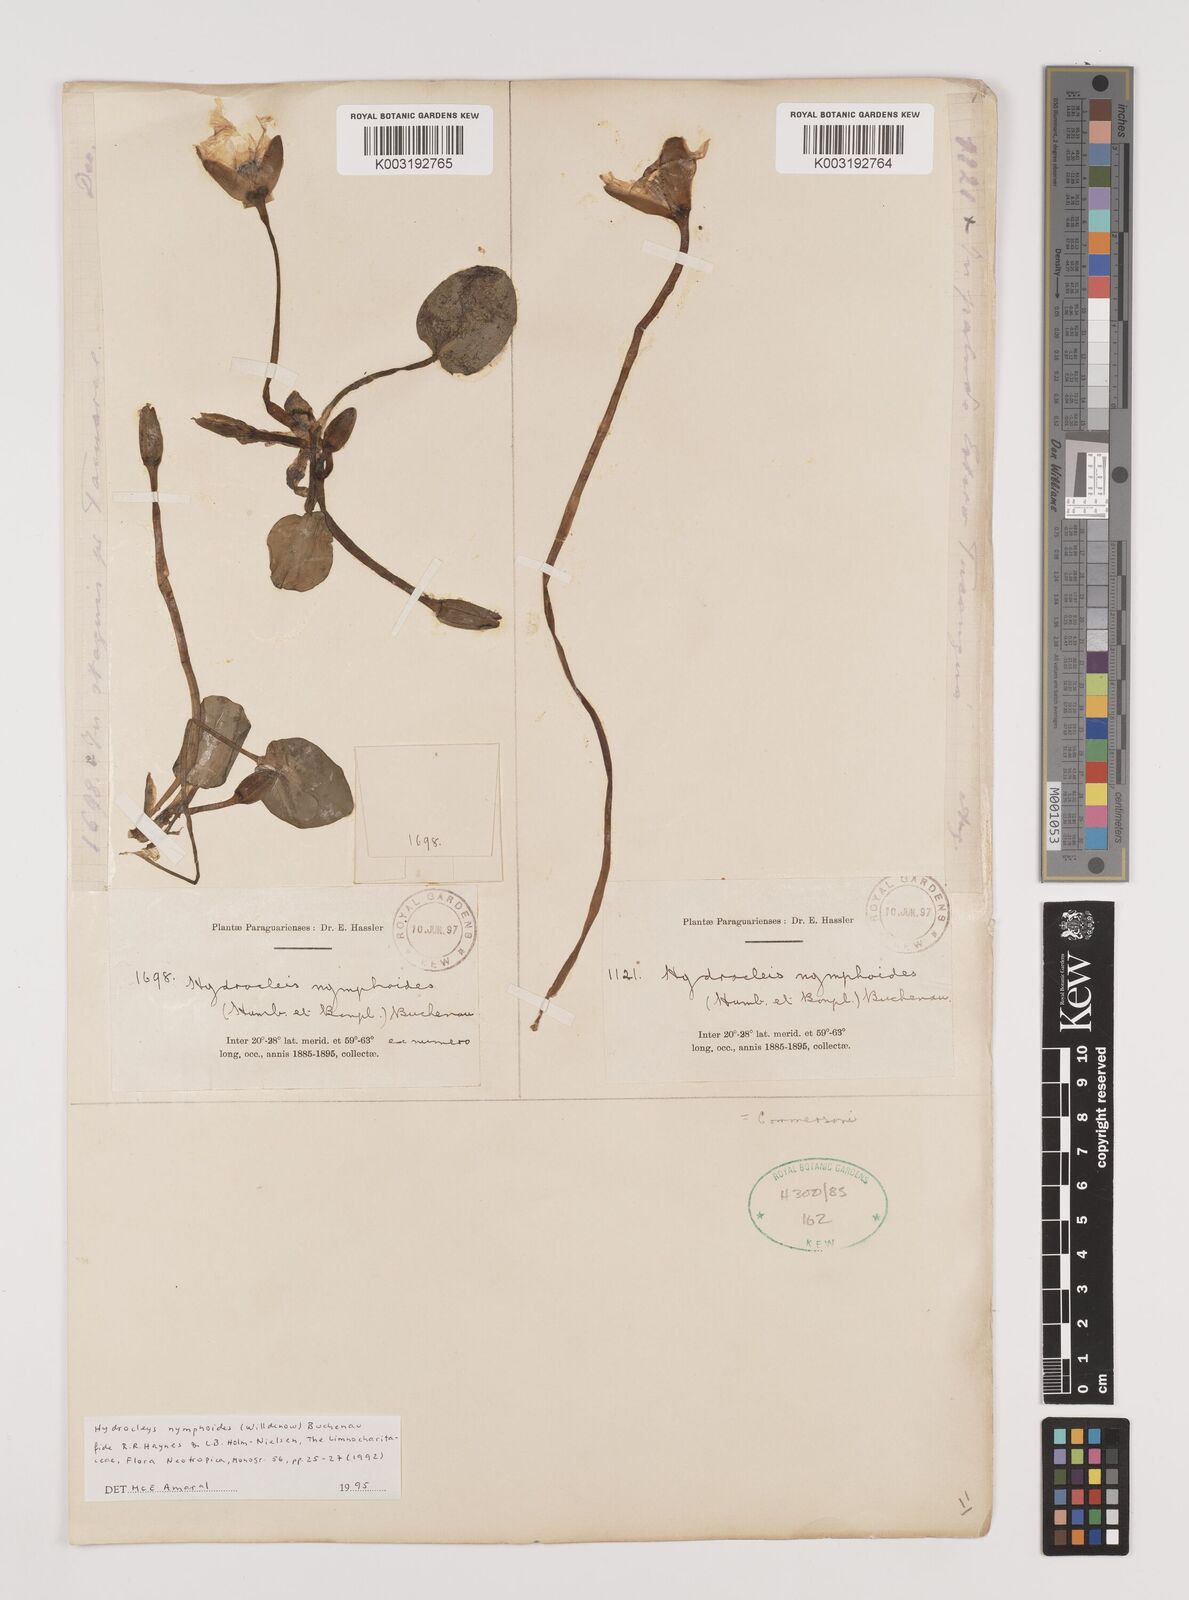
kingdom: Plantae
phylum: Tracheophyta
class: Liliopsida
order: Alismatales
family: Alismataceae
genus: Hydrocleys
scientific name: Hydrocleys nymphoides
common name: Water-poppy
